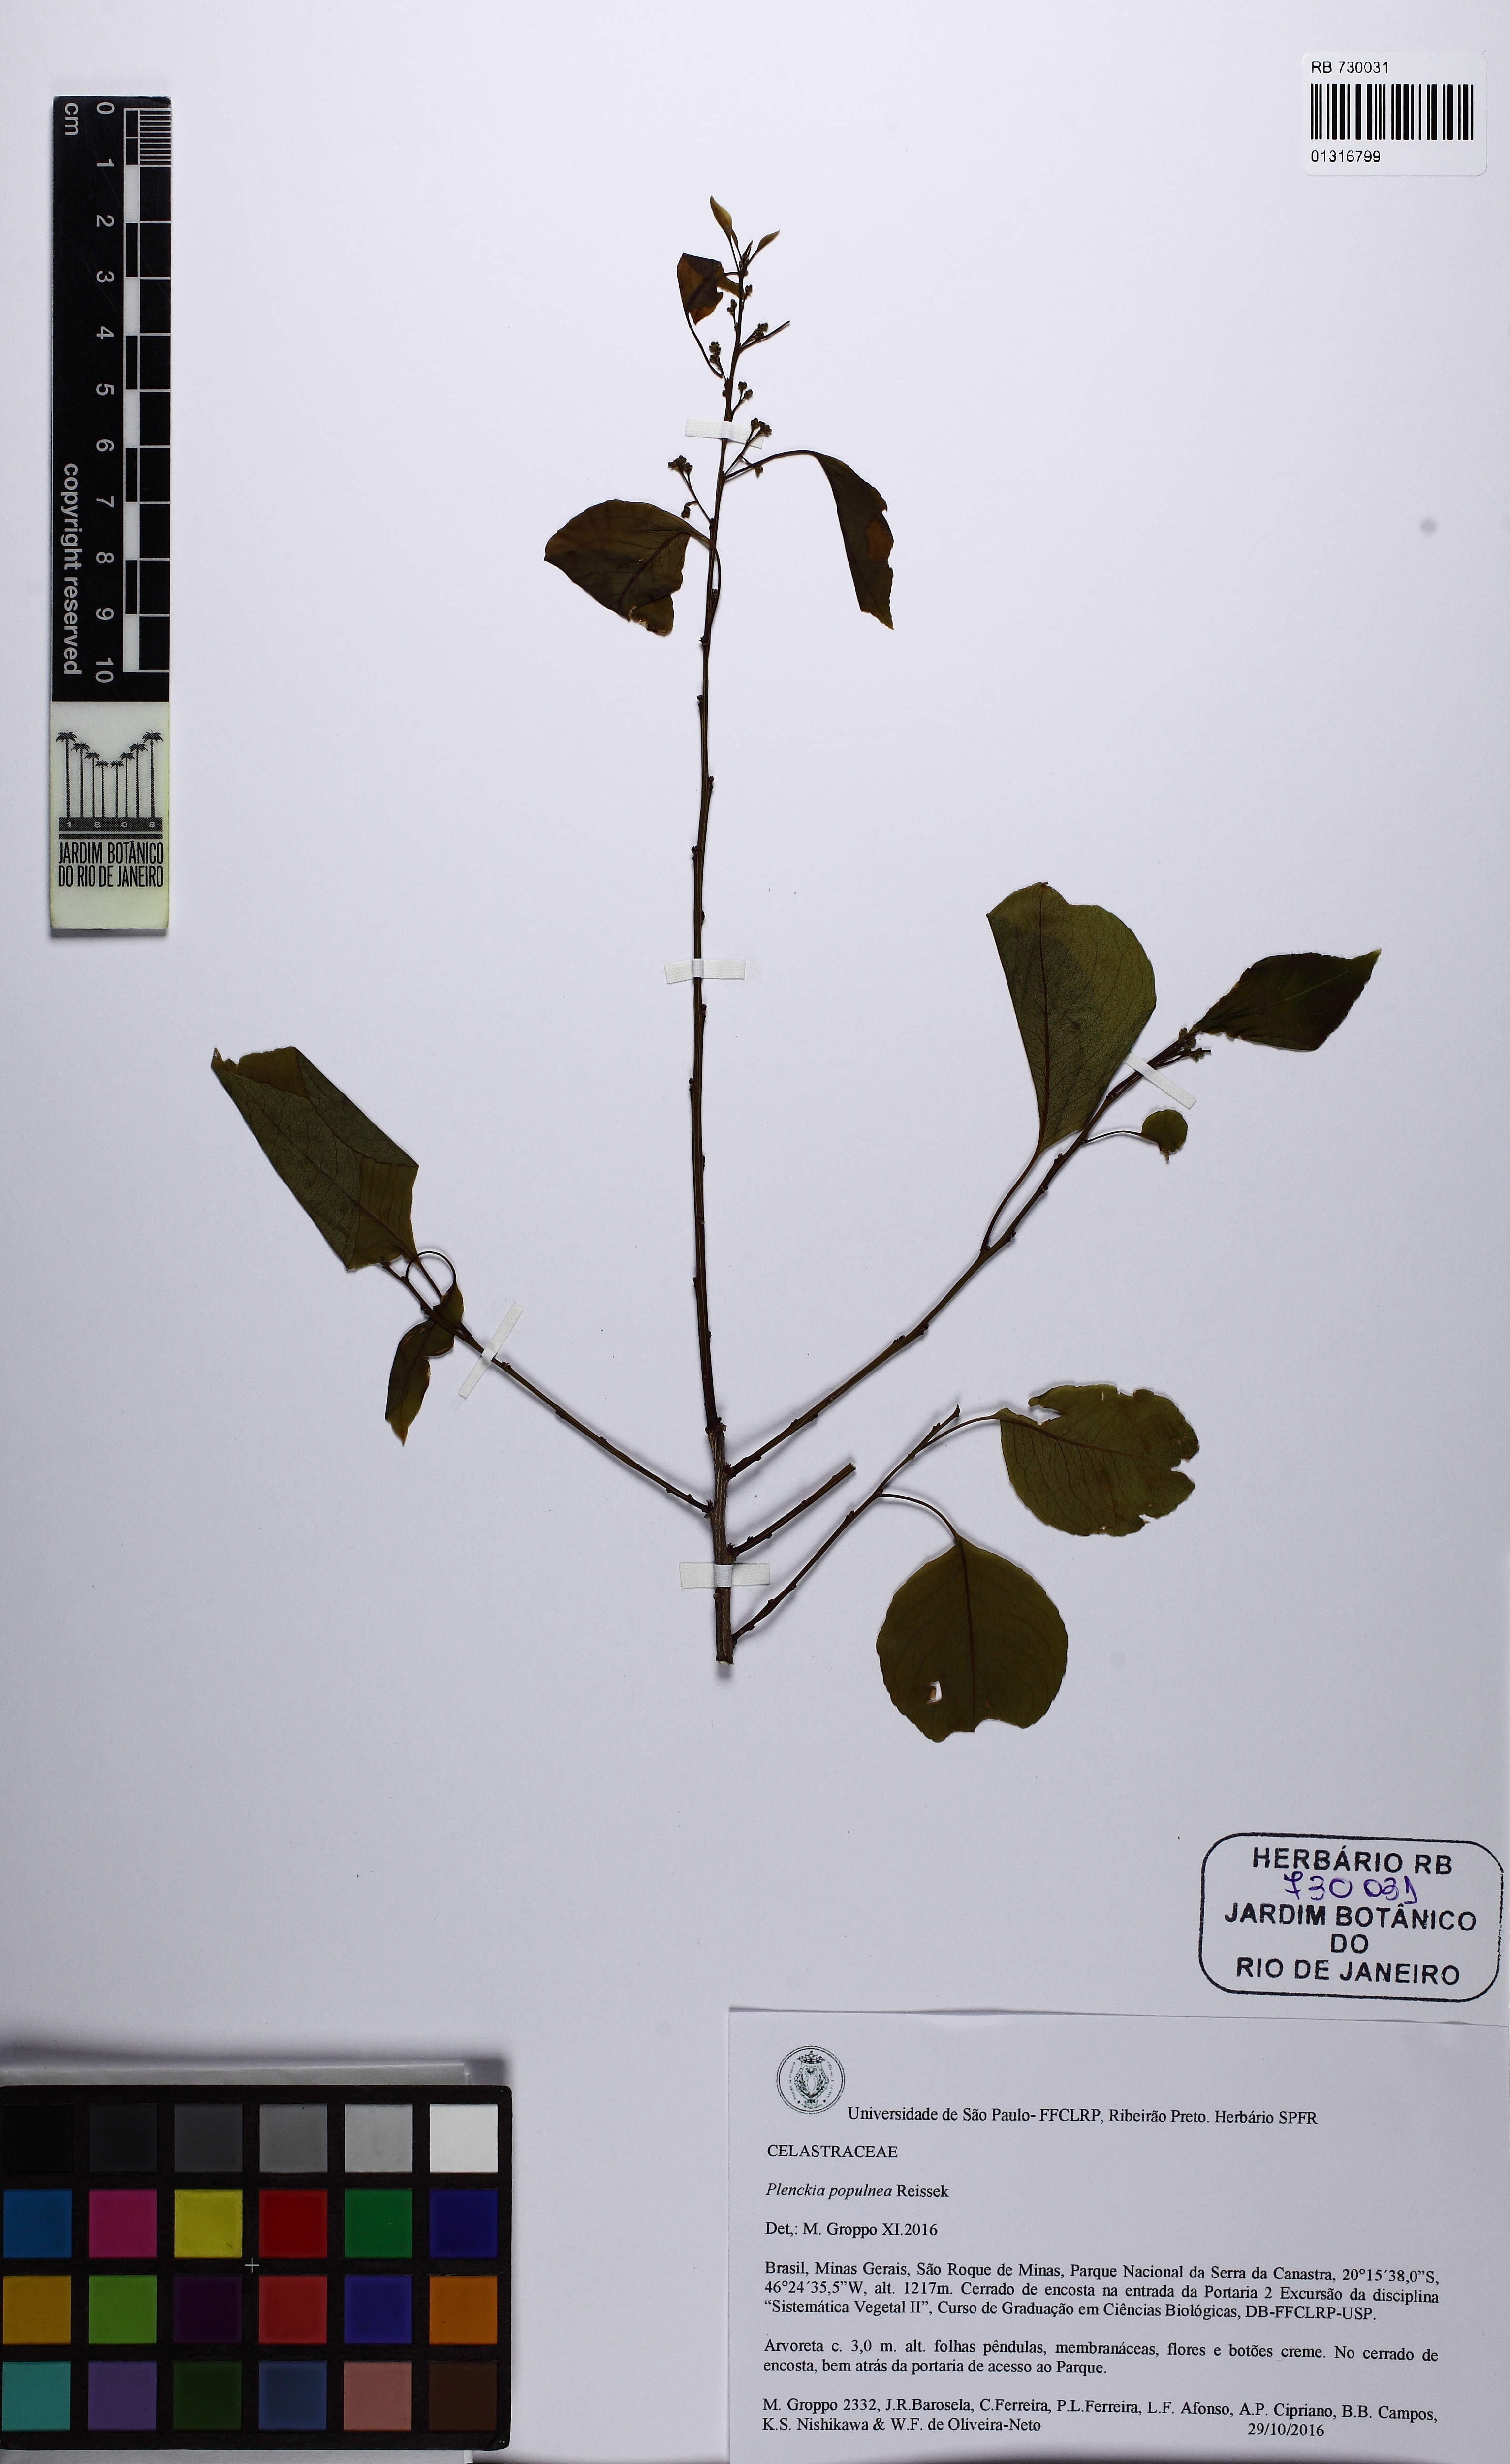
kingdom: Plantae
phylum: Tracheophyta
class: Magnoliopsida
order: Celastrales
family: Celastraceae
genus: Plenckia
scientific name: Plenckia populnea
